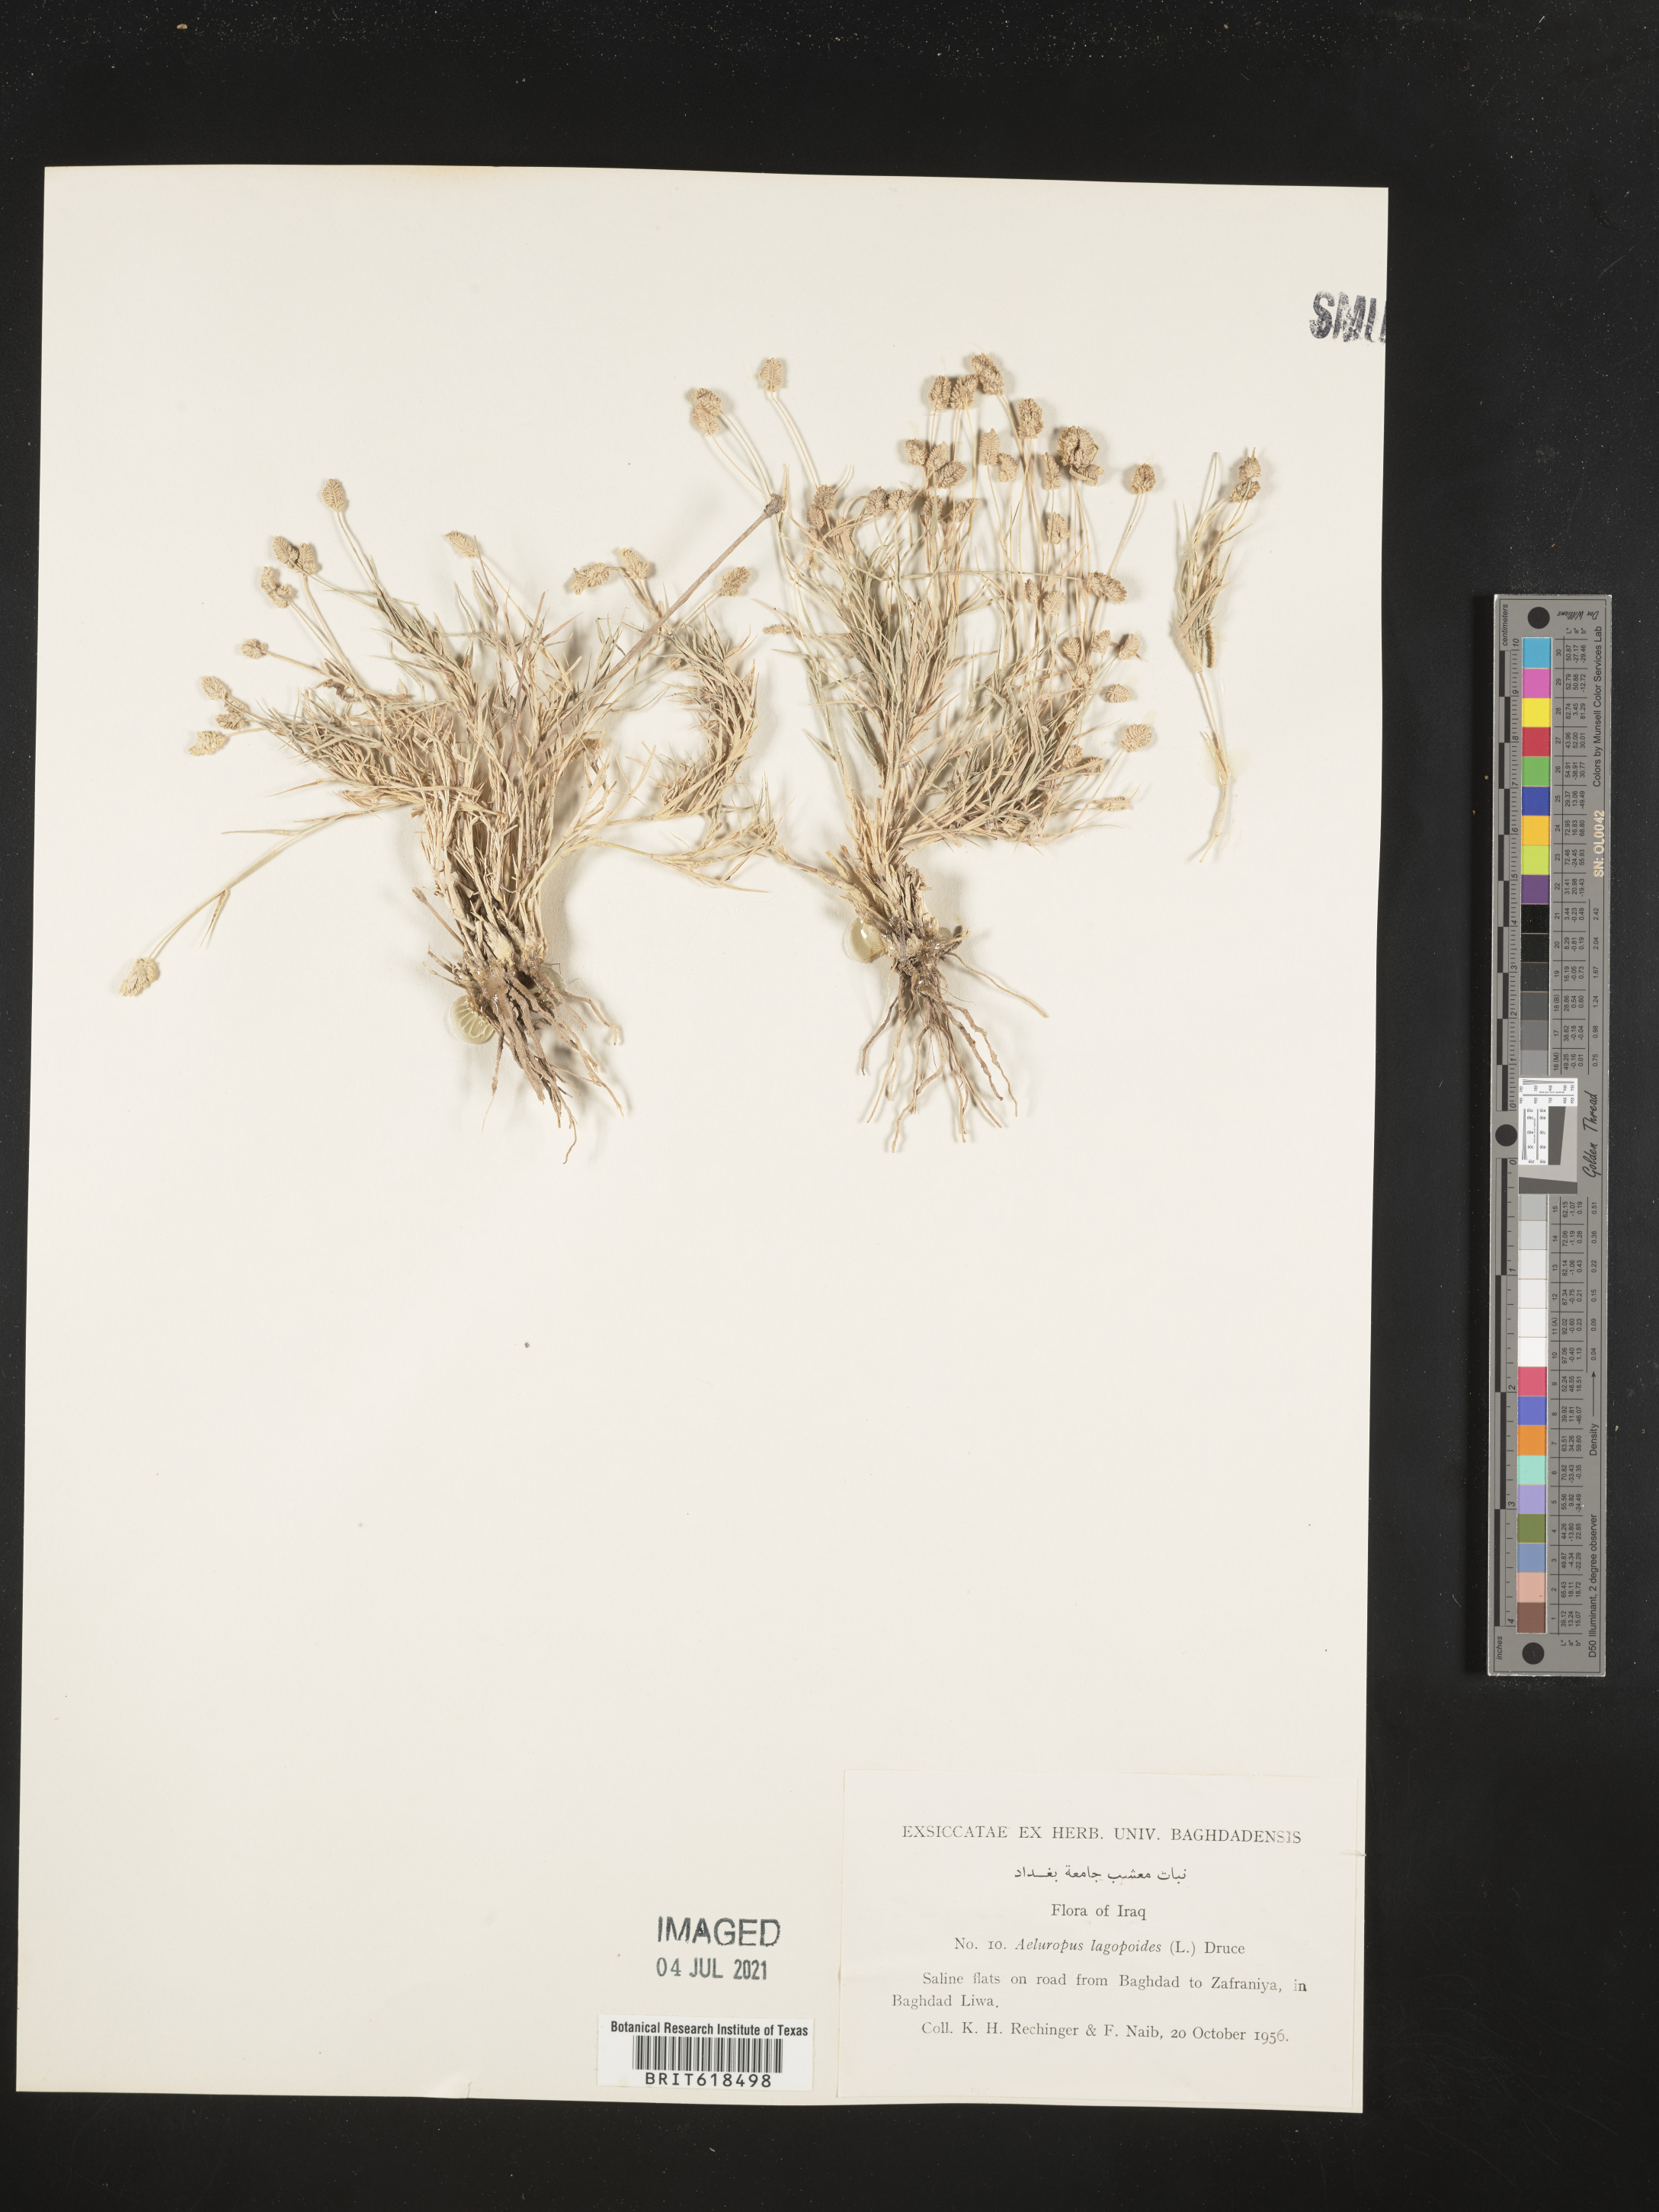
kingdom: Plantae
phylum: Tracheophyta
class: Liliopsida
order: Poales
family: Poaceae
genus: Aeluropus
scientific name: Aeluropus lagopoides
